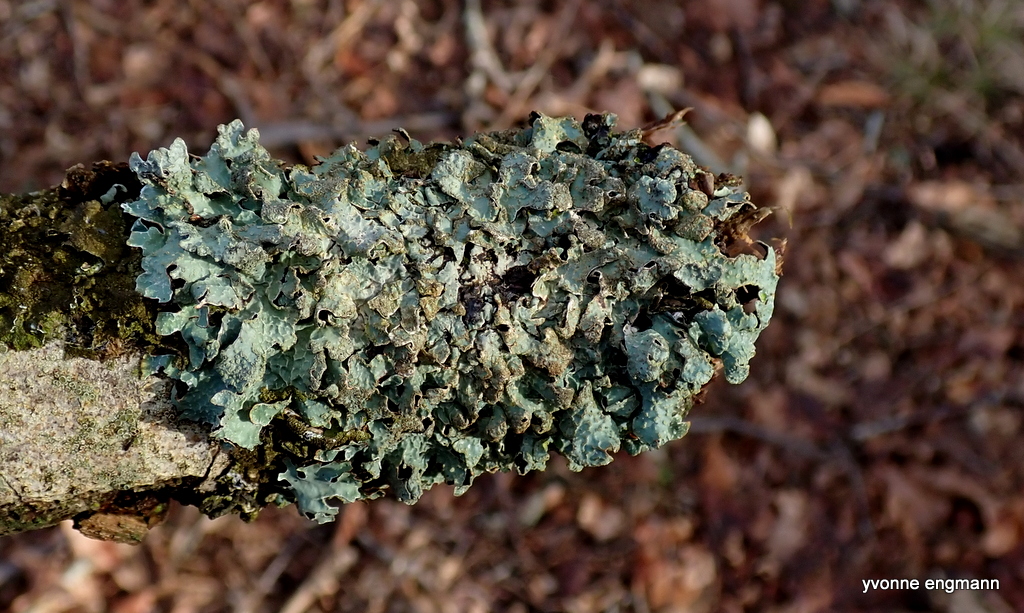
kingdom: Fungi
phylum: Ascomycota
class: Lecanoromycetes
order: Lecanorales
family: Parmeliaceae
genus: Parmelia
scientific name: Parmelia sulcata
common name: rynket skållav
